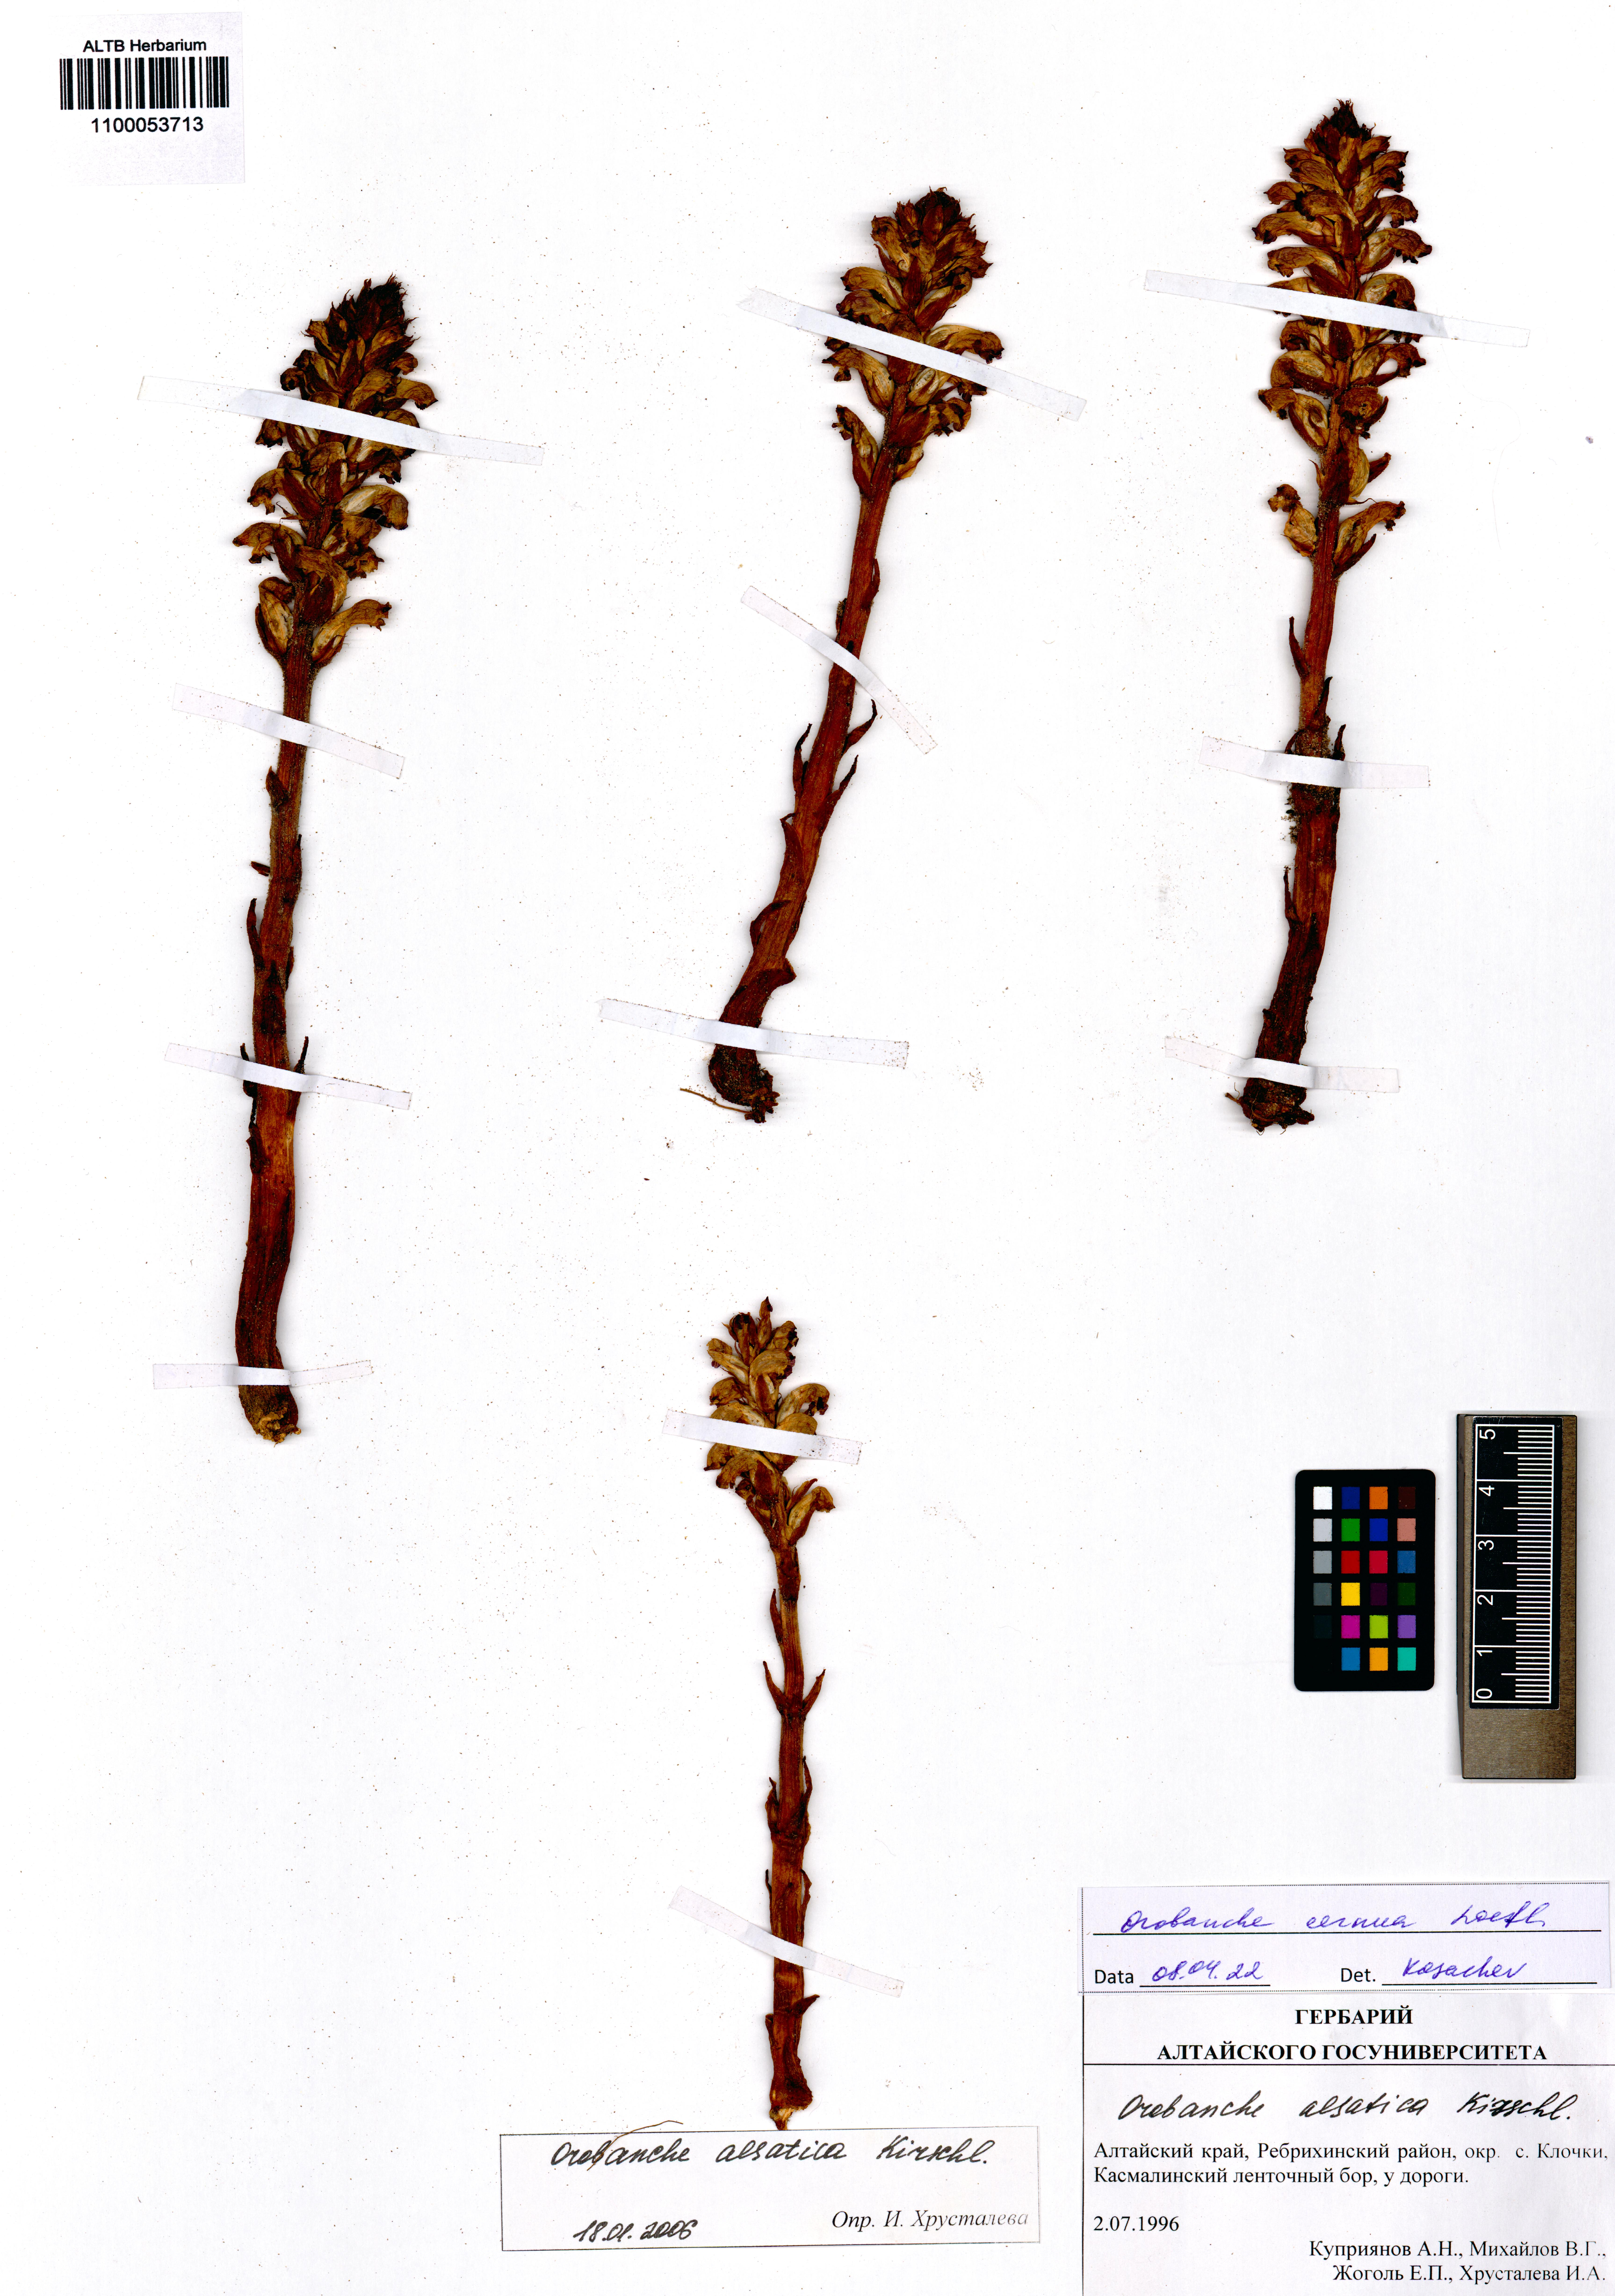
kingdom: Plantae
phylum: Tracheophyta
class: Magnoliopsida
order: Lamiales
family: Orobanchaceae
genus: Orobanche
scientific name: Orobanche cernua
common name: Australian broomrape
